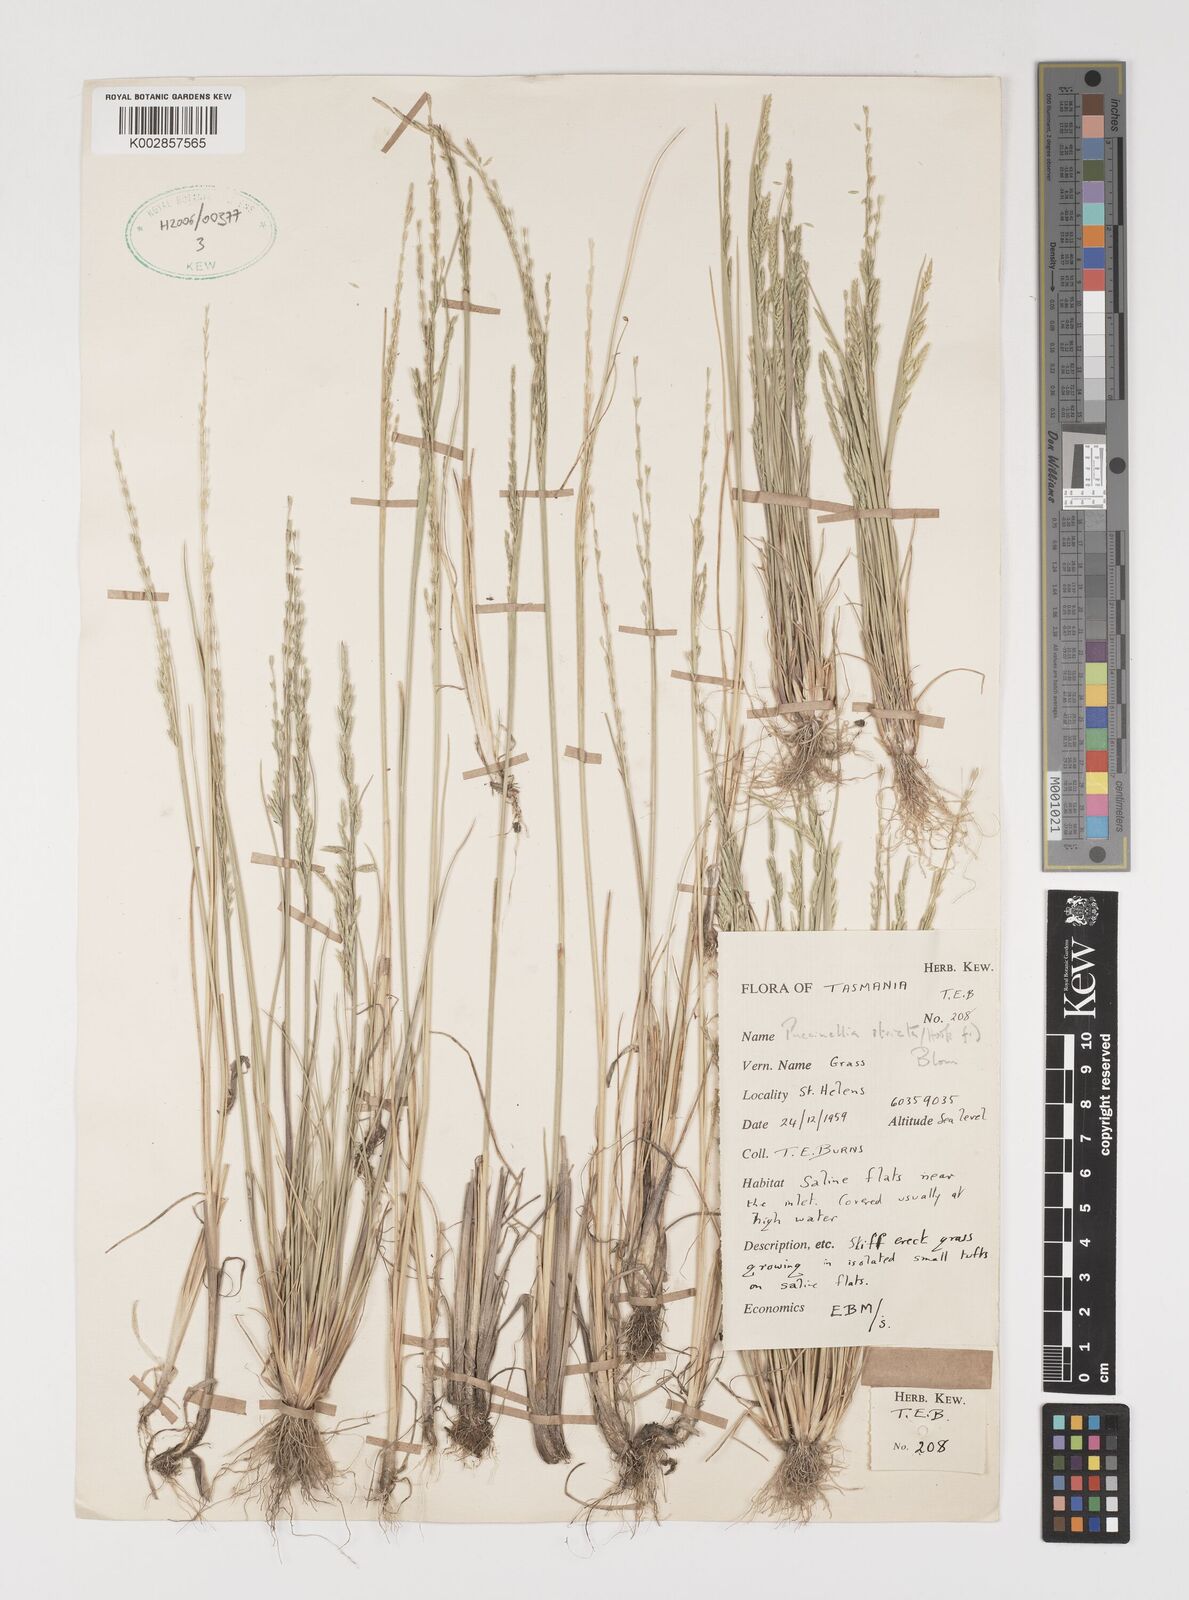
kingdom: Plantae
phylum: Tracheophyta
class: Liliopsida
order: Poales
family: Poaceae
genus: Puccinellia
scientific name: Puccinellia stricta
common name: Australian saltmarsh grass
